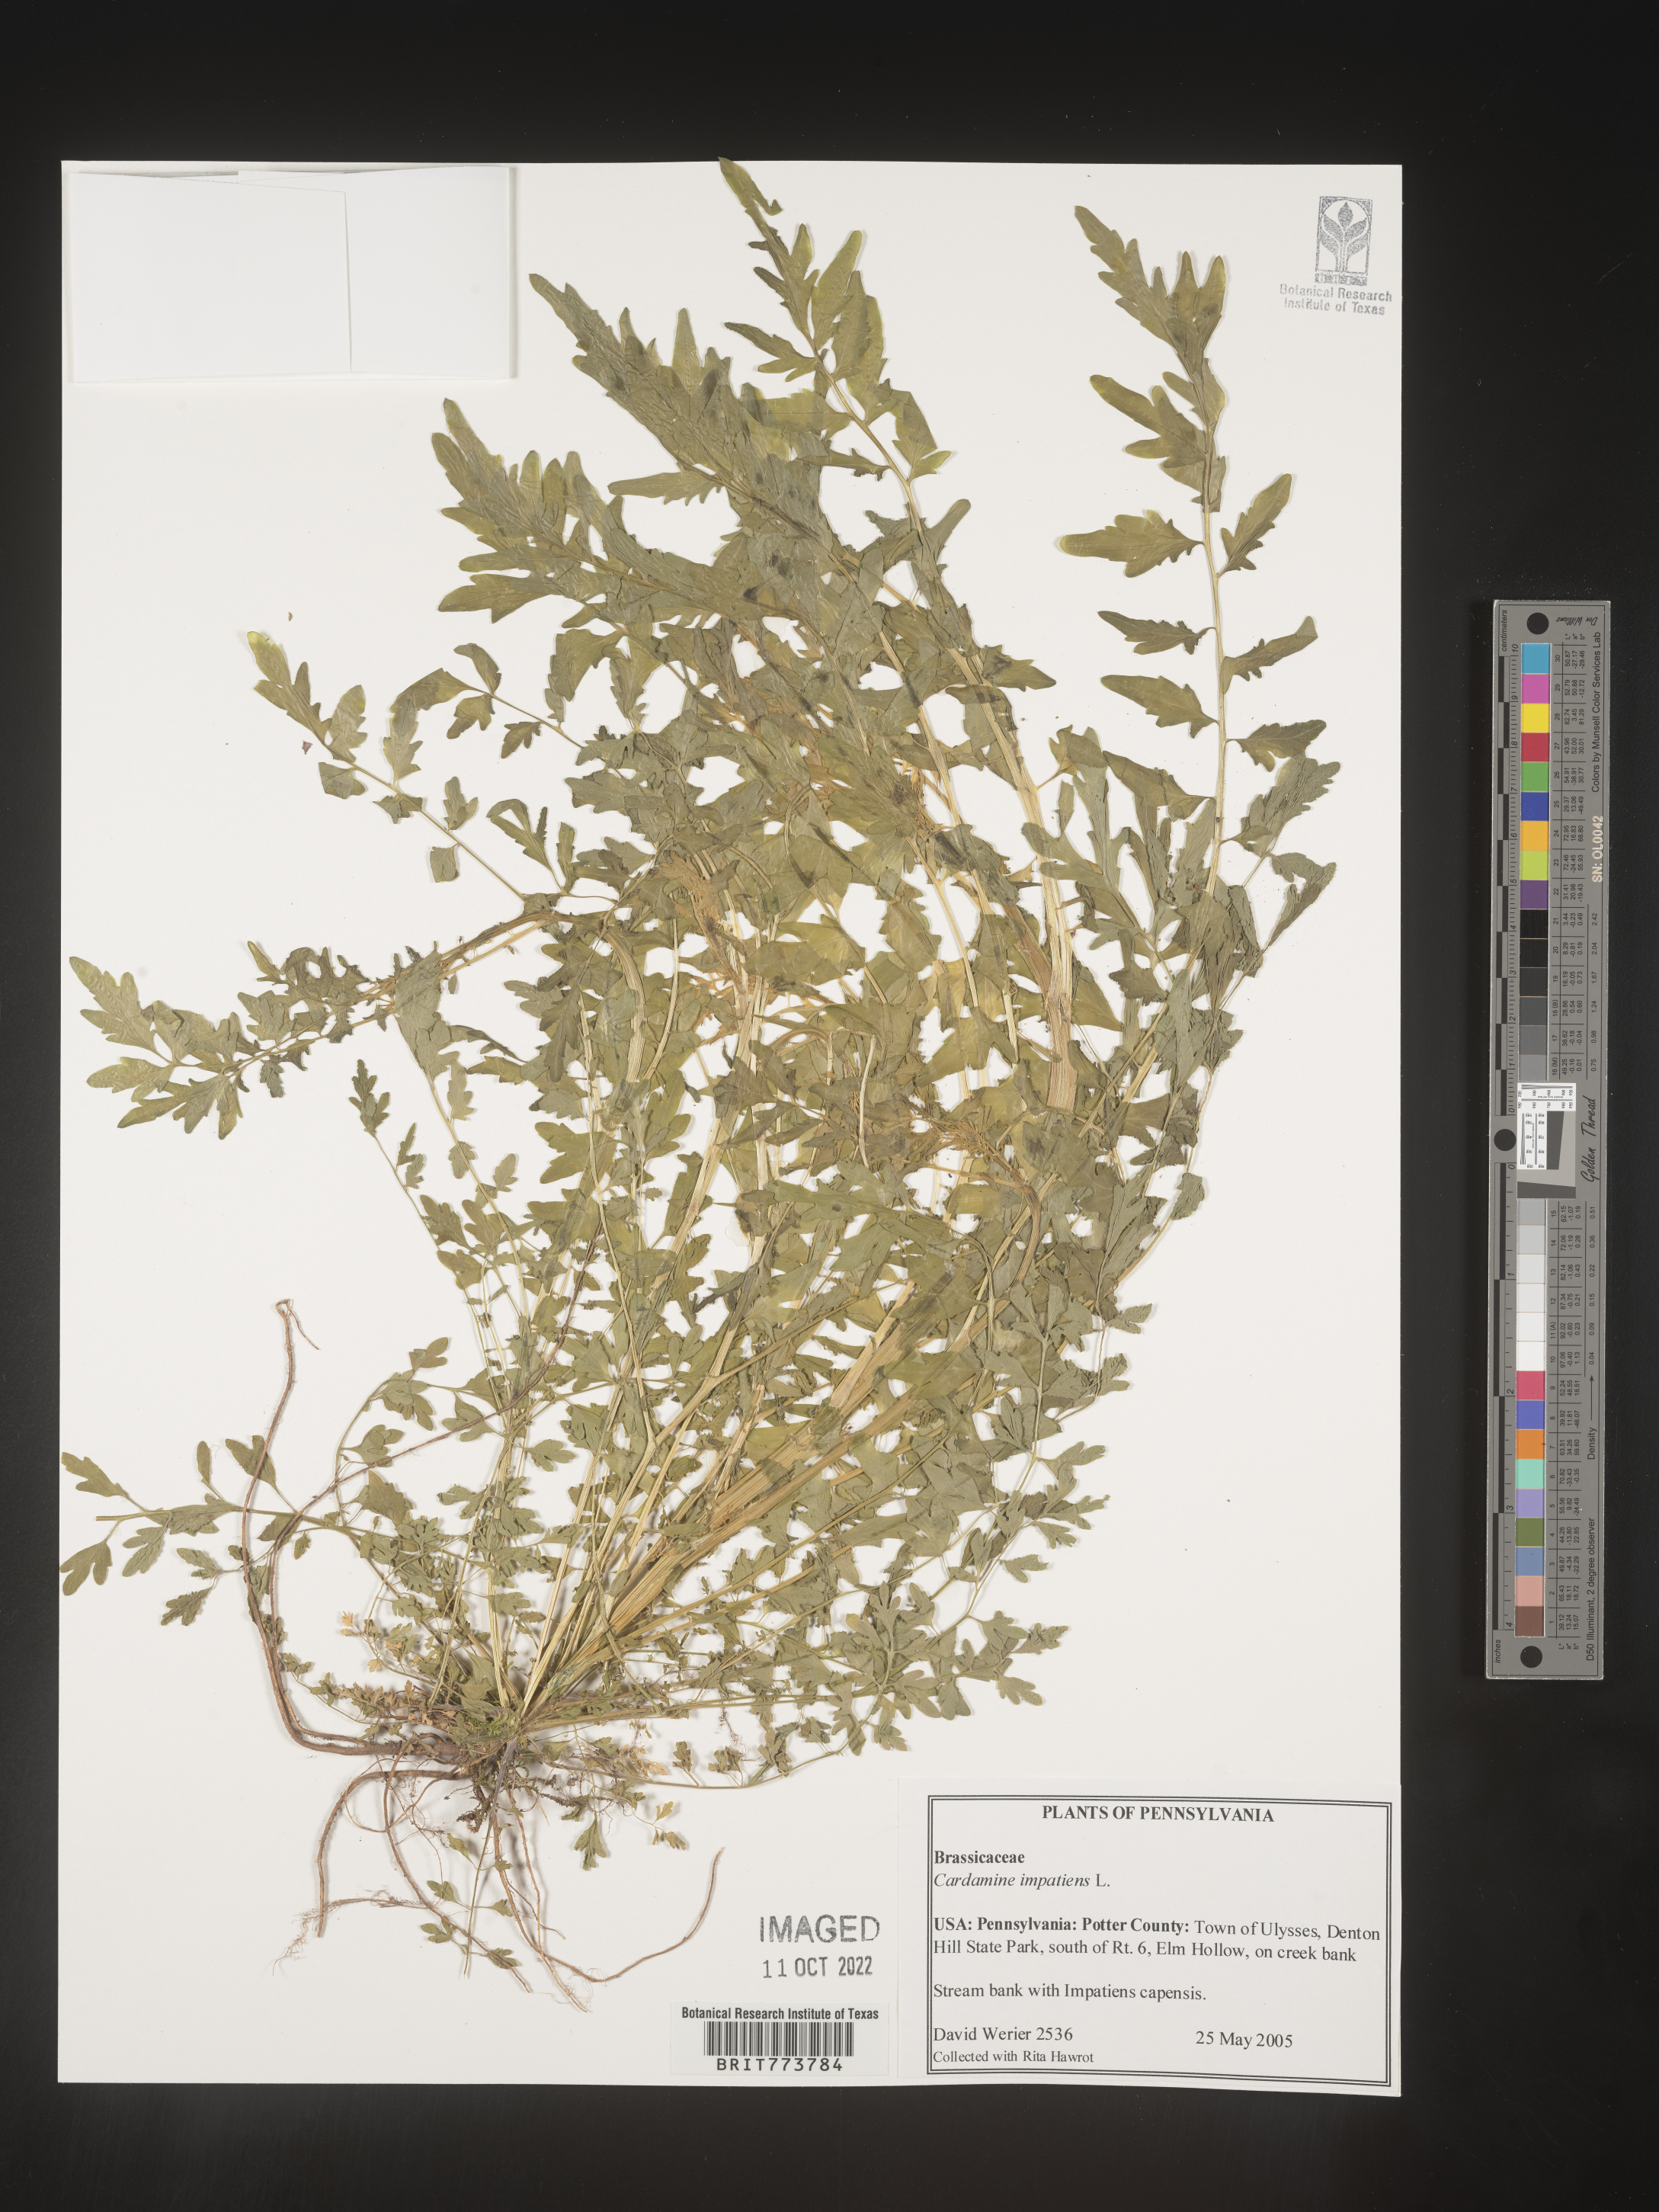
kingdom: Plantae
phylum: Tracheophyta
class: Magnoliopsida
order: Brassicales
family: Brassicaceae
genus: Cardamine
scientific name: Cardamine impatiens
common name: Narrow-leaved bitter-cress
